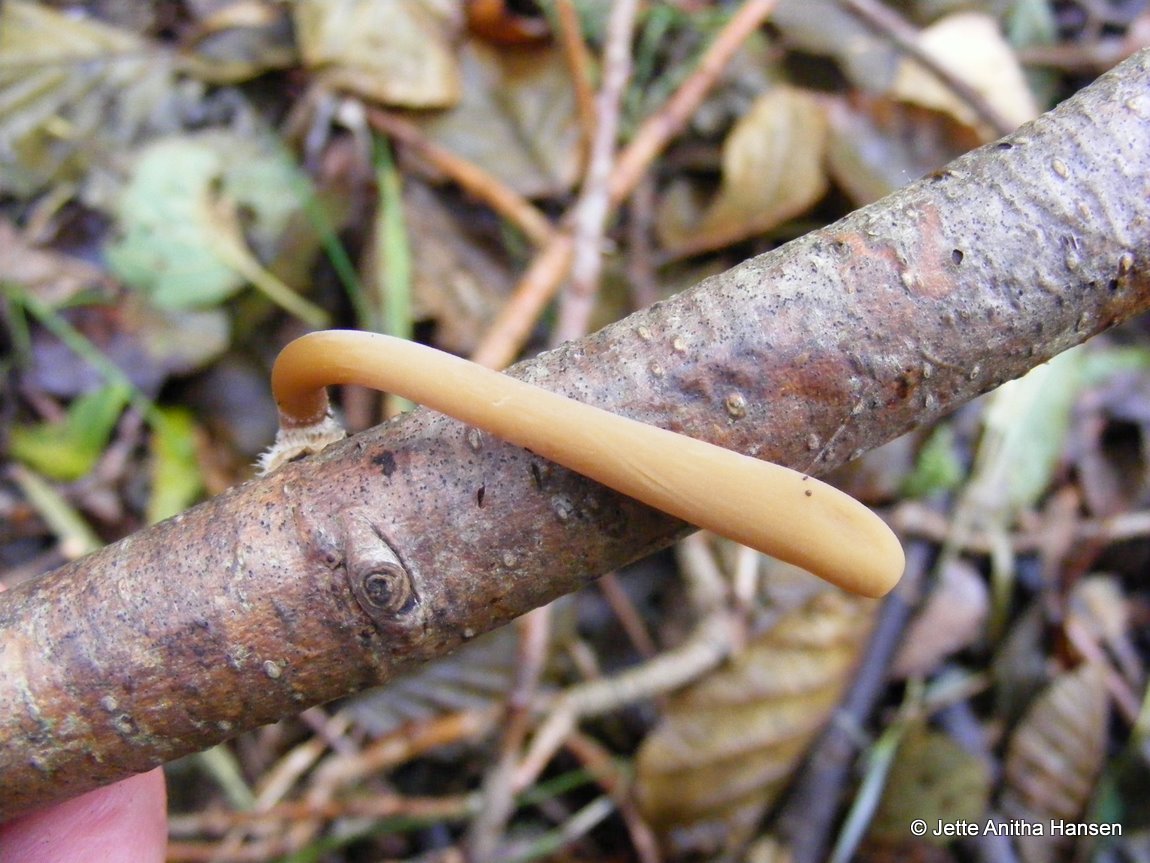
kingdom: Fungi
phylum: Basidiomycota
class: Agaricomycetes
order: Agaricales
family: Typhulaceae
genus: Typhula
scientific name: Typhula fistulosa
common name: pibet rørkølle
